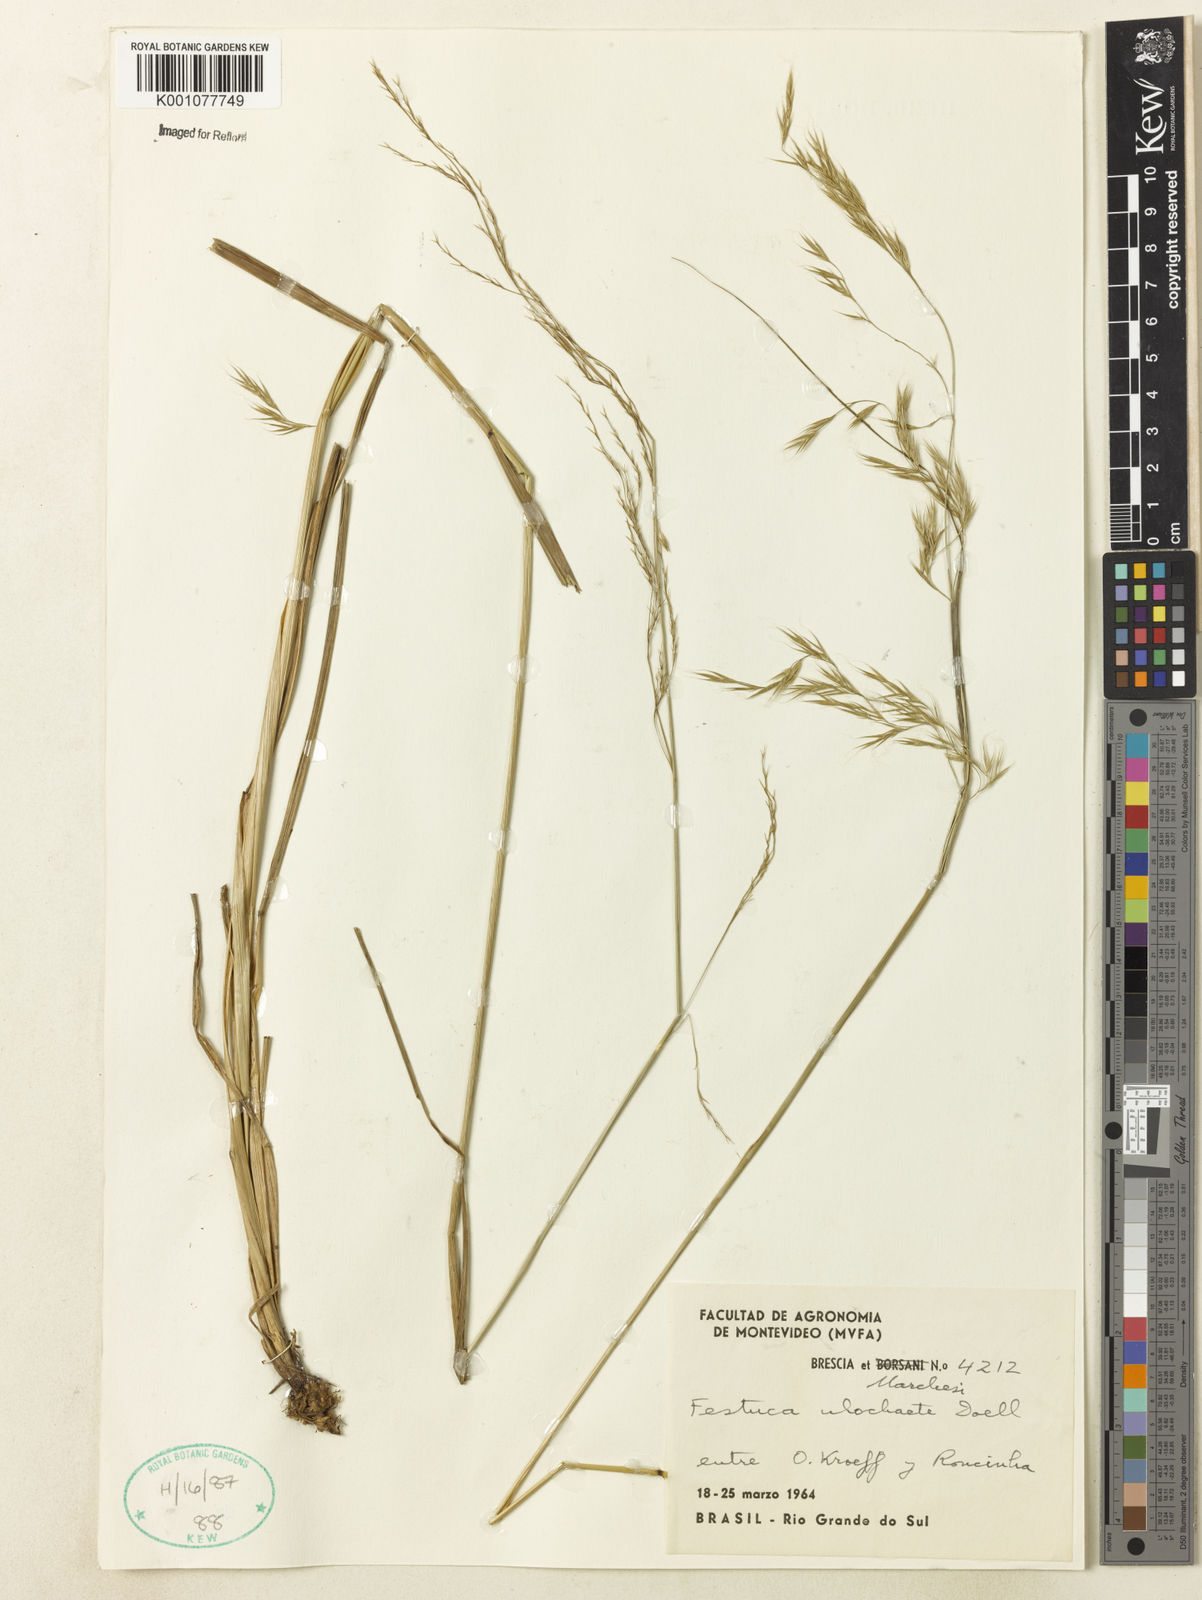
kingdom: Plantae
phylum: Tracheophyta
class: Liliopsida
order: Poales
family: Poaceae
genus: Festuca
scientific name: Festuca ulochaeta
